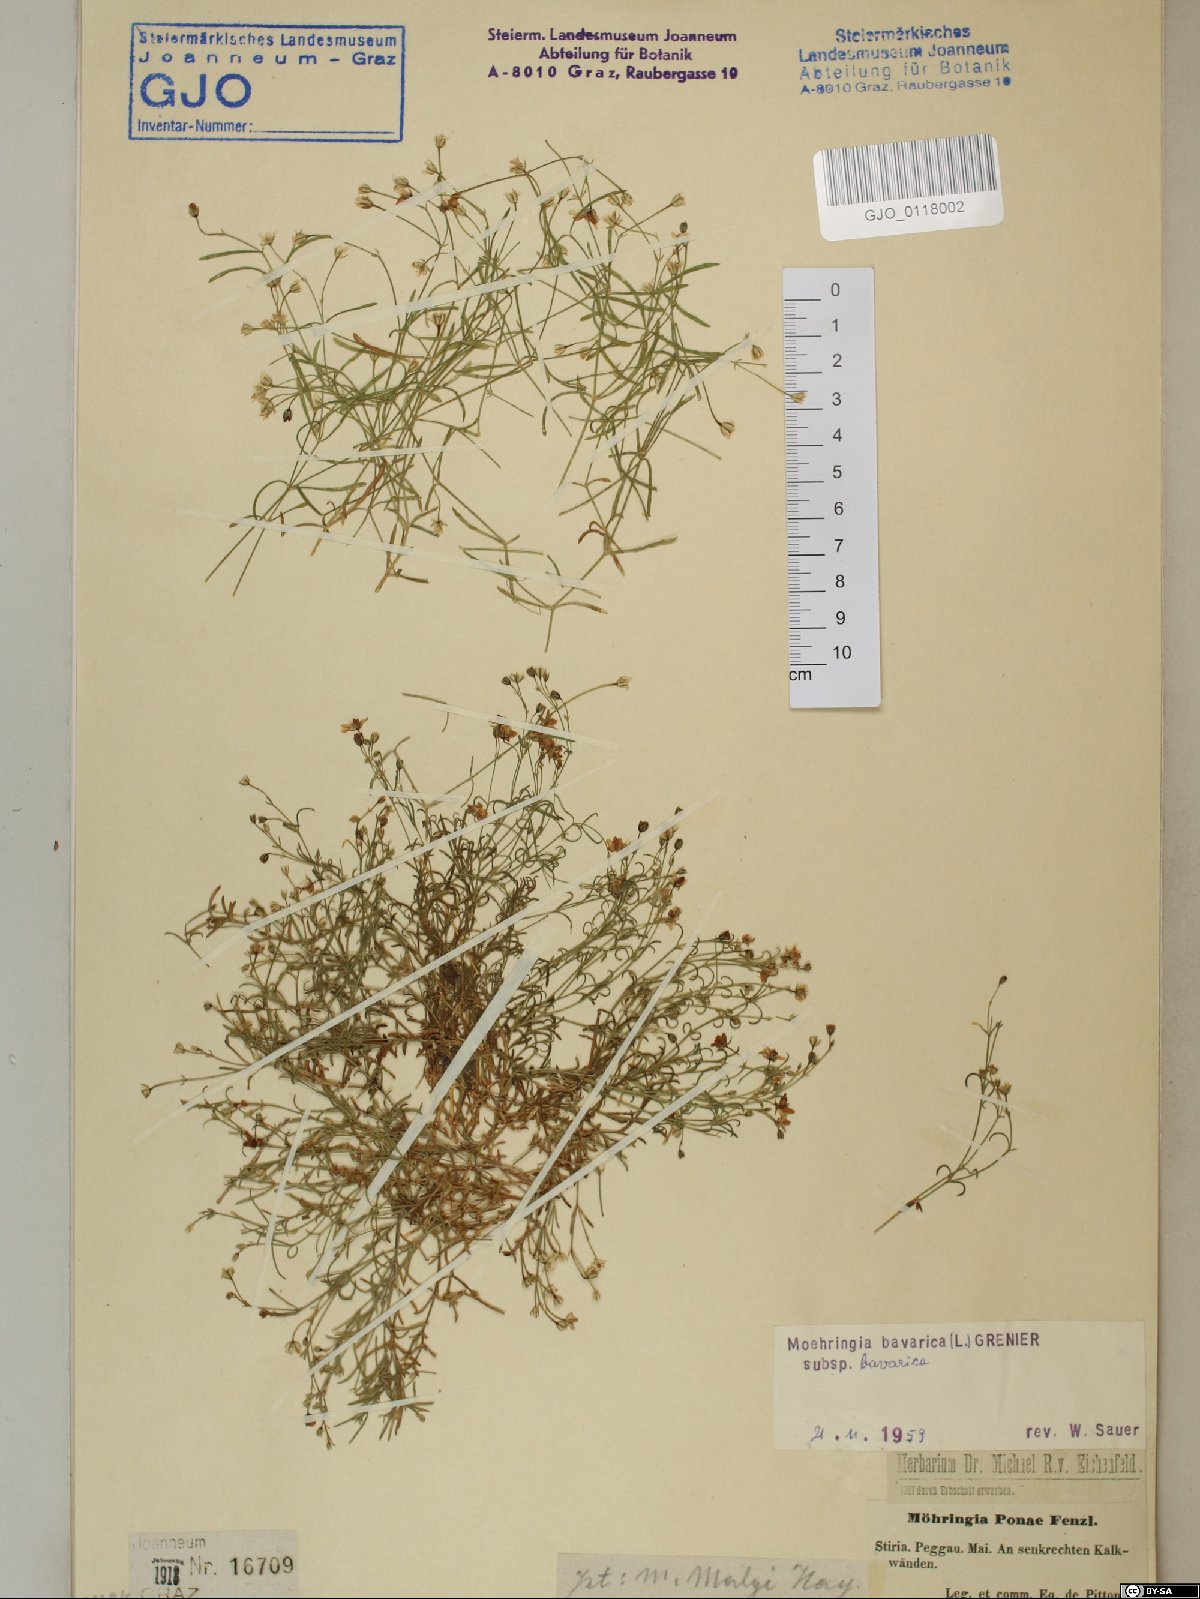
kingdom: Plantae
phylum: Tracheophyta
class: Magnoliopsida
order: Caryophyllales
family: Caryophyllaceae
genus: Moehringia
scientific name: Moehringia bavarica
